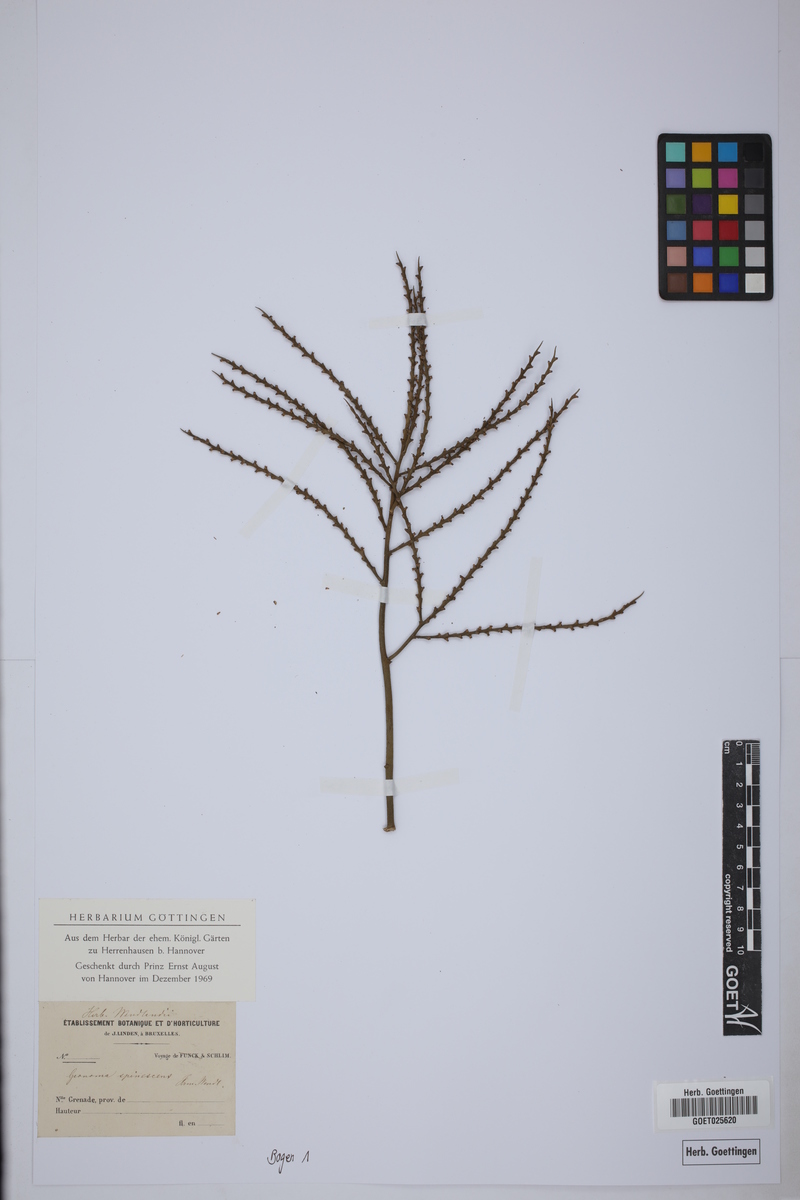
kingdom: Plantae
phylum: Tracheophyta
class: Liliopsida
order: Arecales
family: Arecaceae
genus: Geonoma
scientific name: Geonoma spinescens
